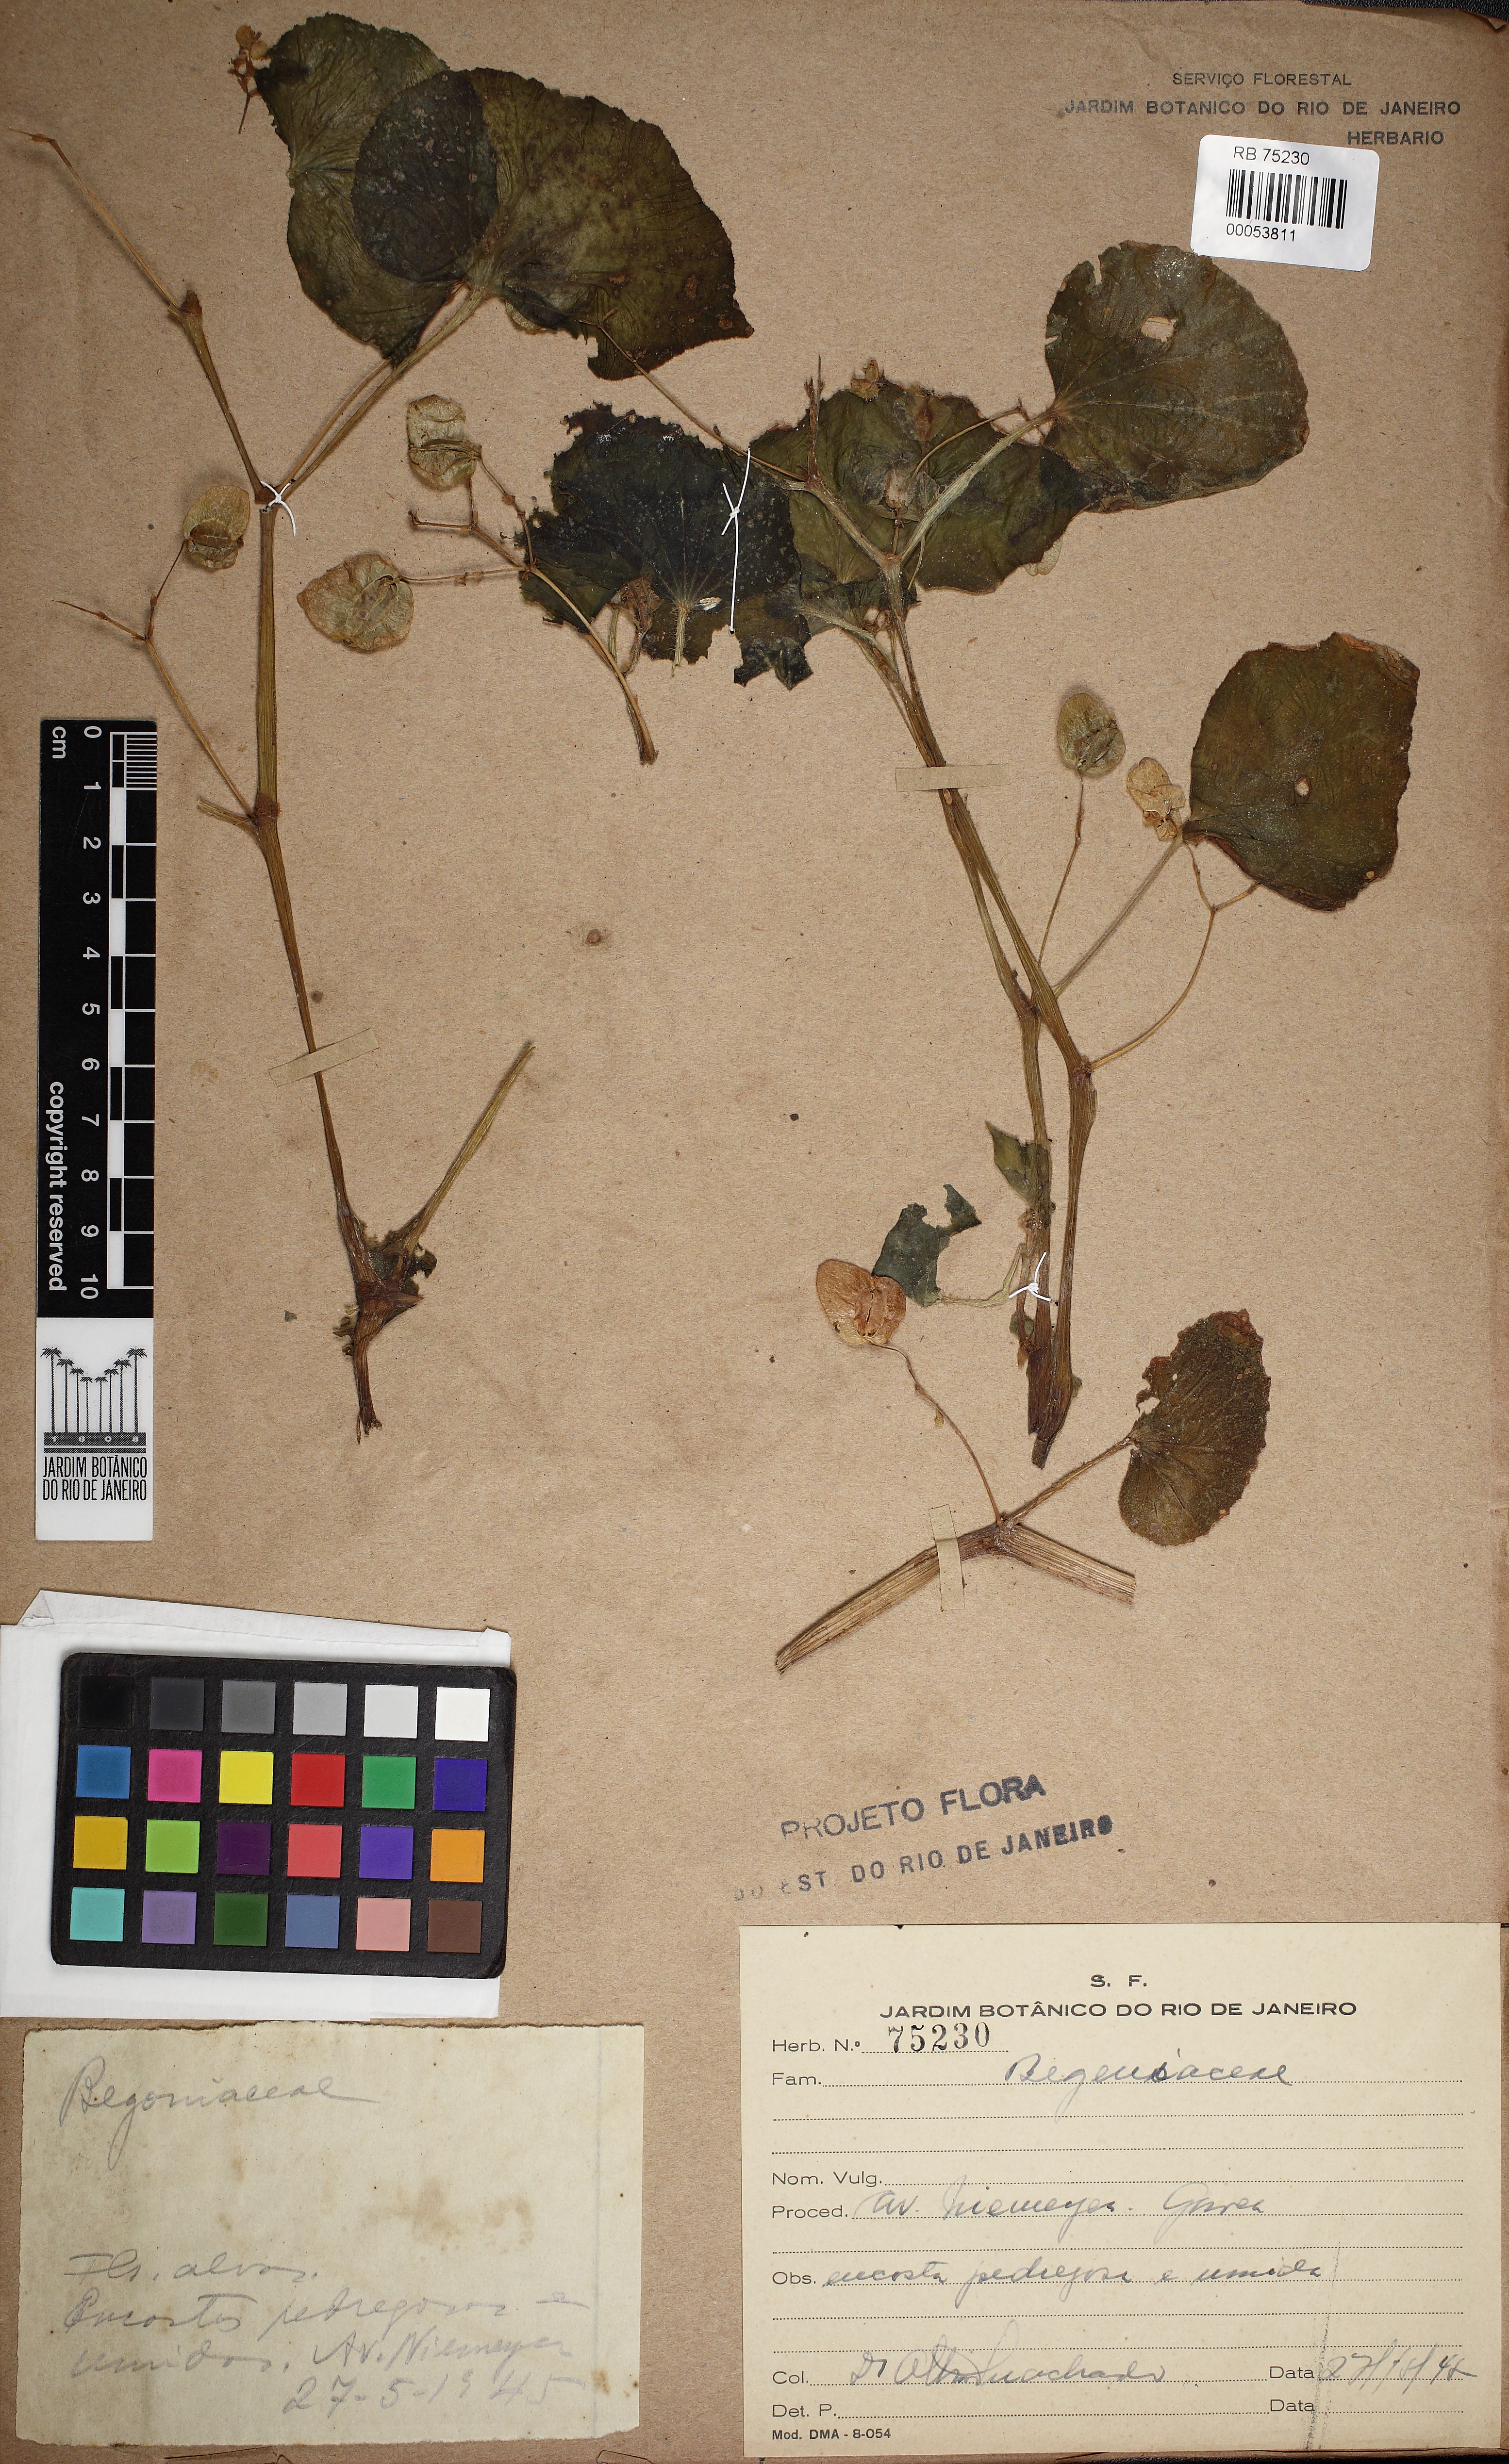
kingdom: Plantae
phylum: Tracheophyta
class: Magnoliopsida
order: Cucurbitales
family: Begoniaceae
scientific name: Begoniaceae
